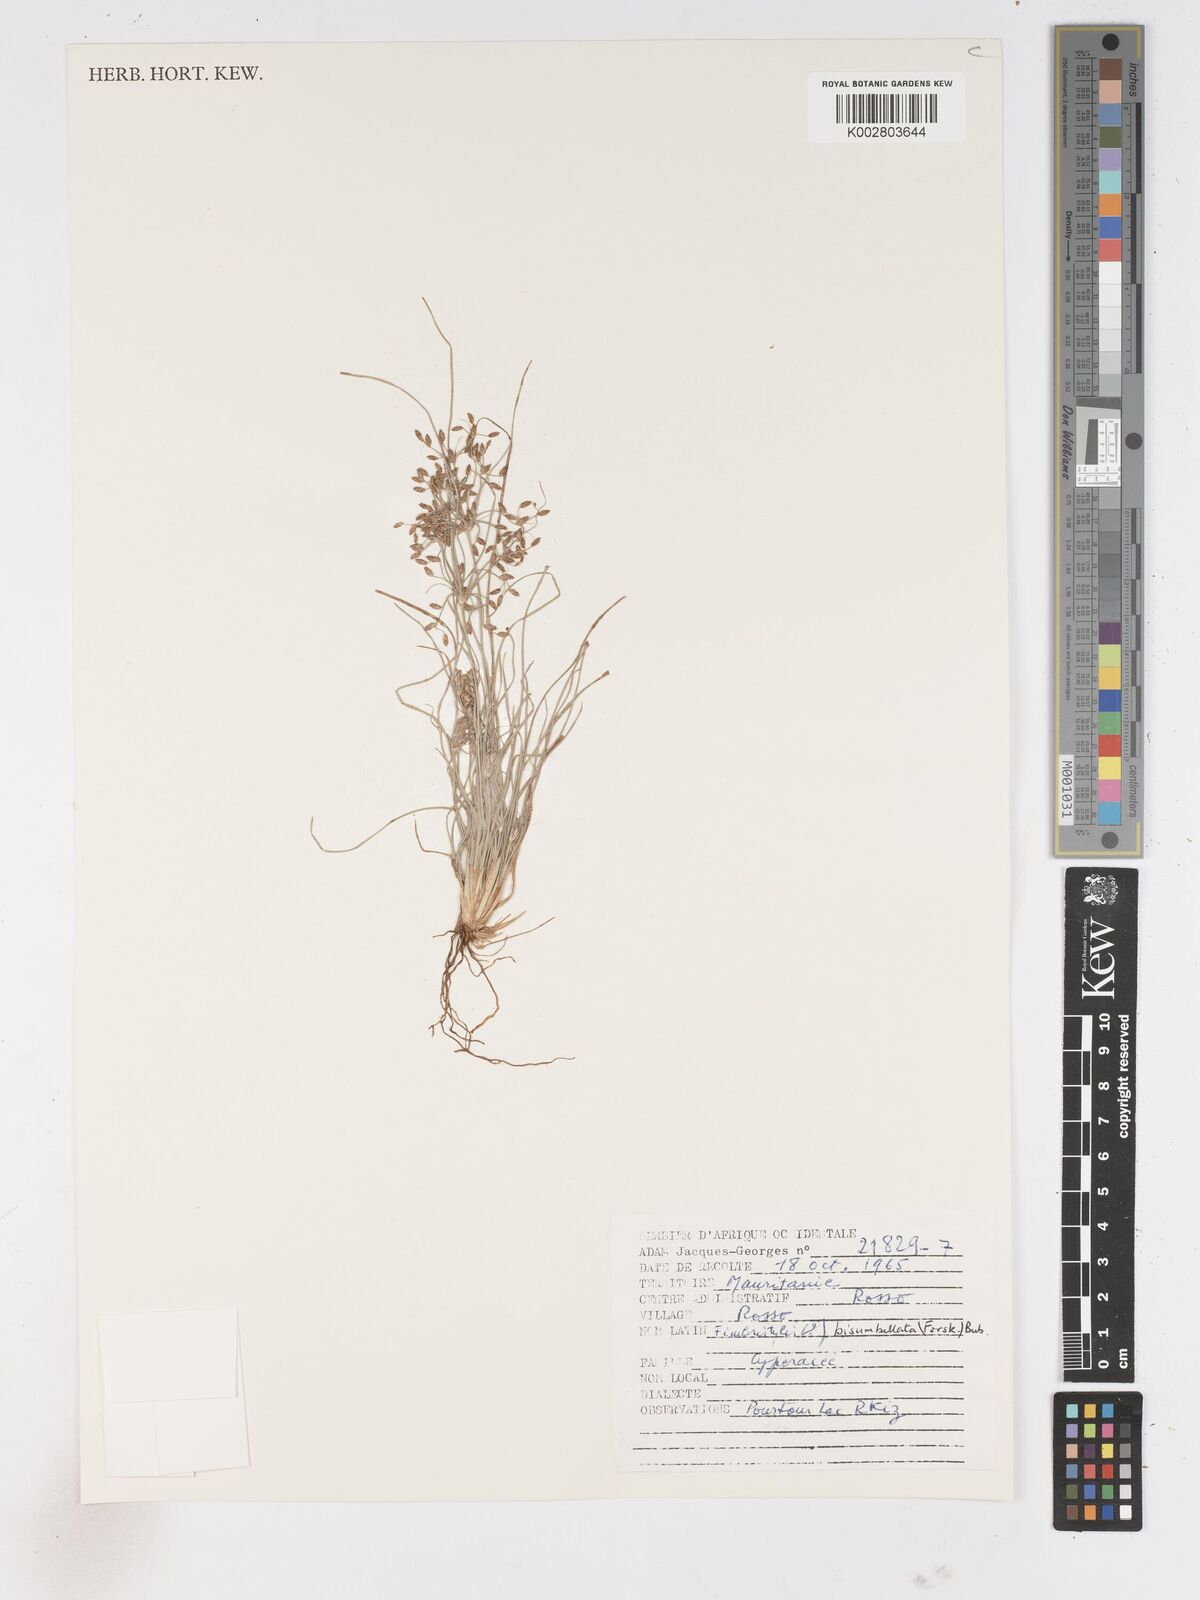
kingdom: Plantae
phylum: Tracheophyta
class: Liliopsida
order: Poales
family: Cyperaceae
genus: Fimbristylis
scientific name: Fimbristylis bisumbellata
